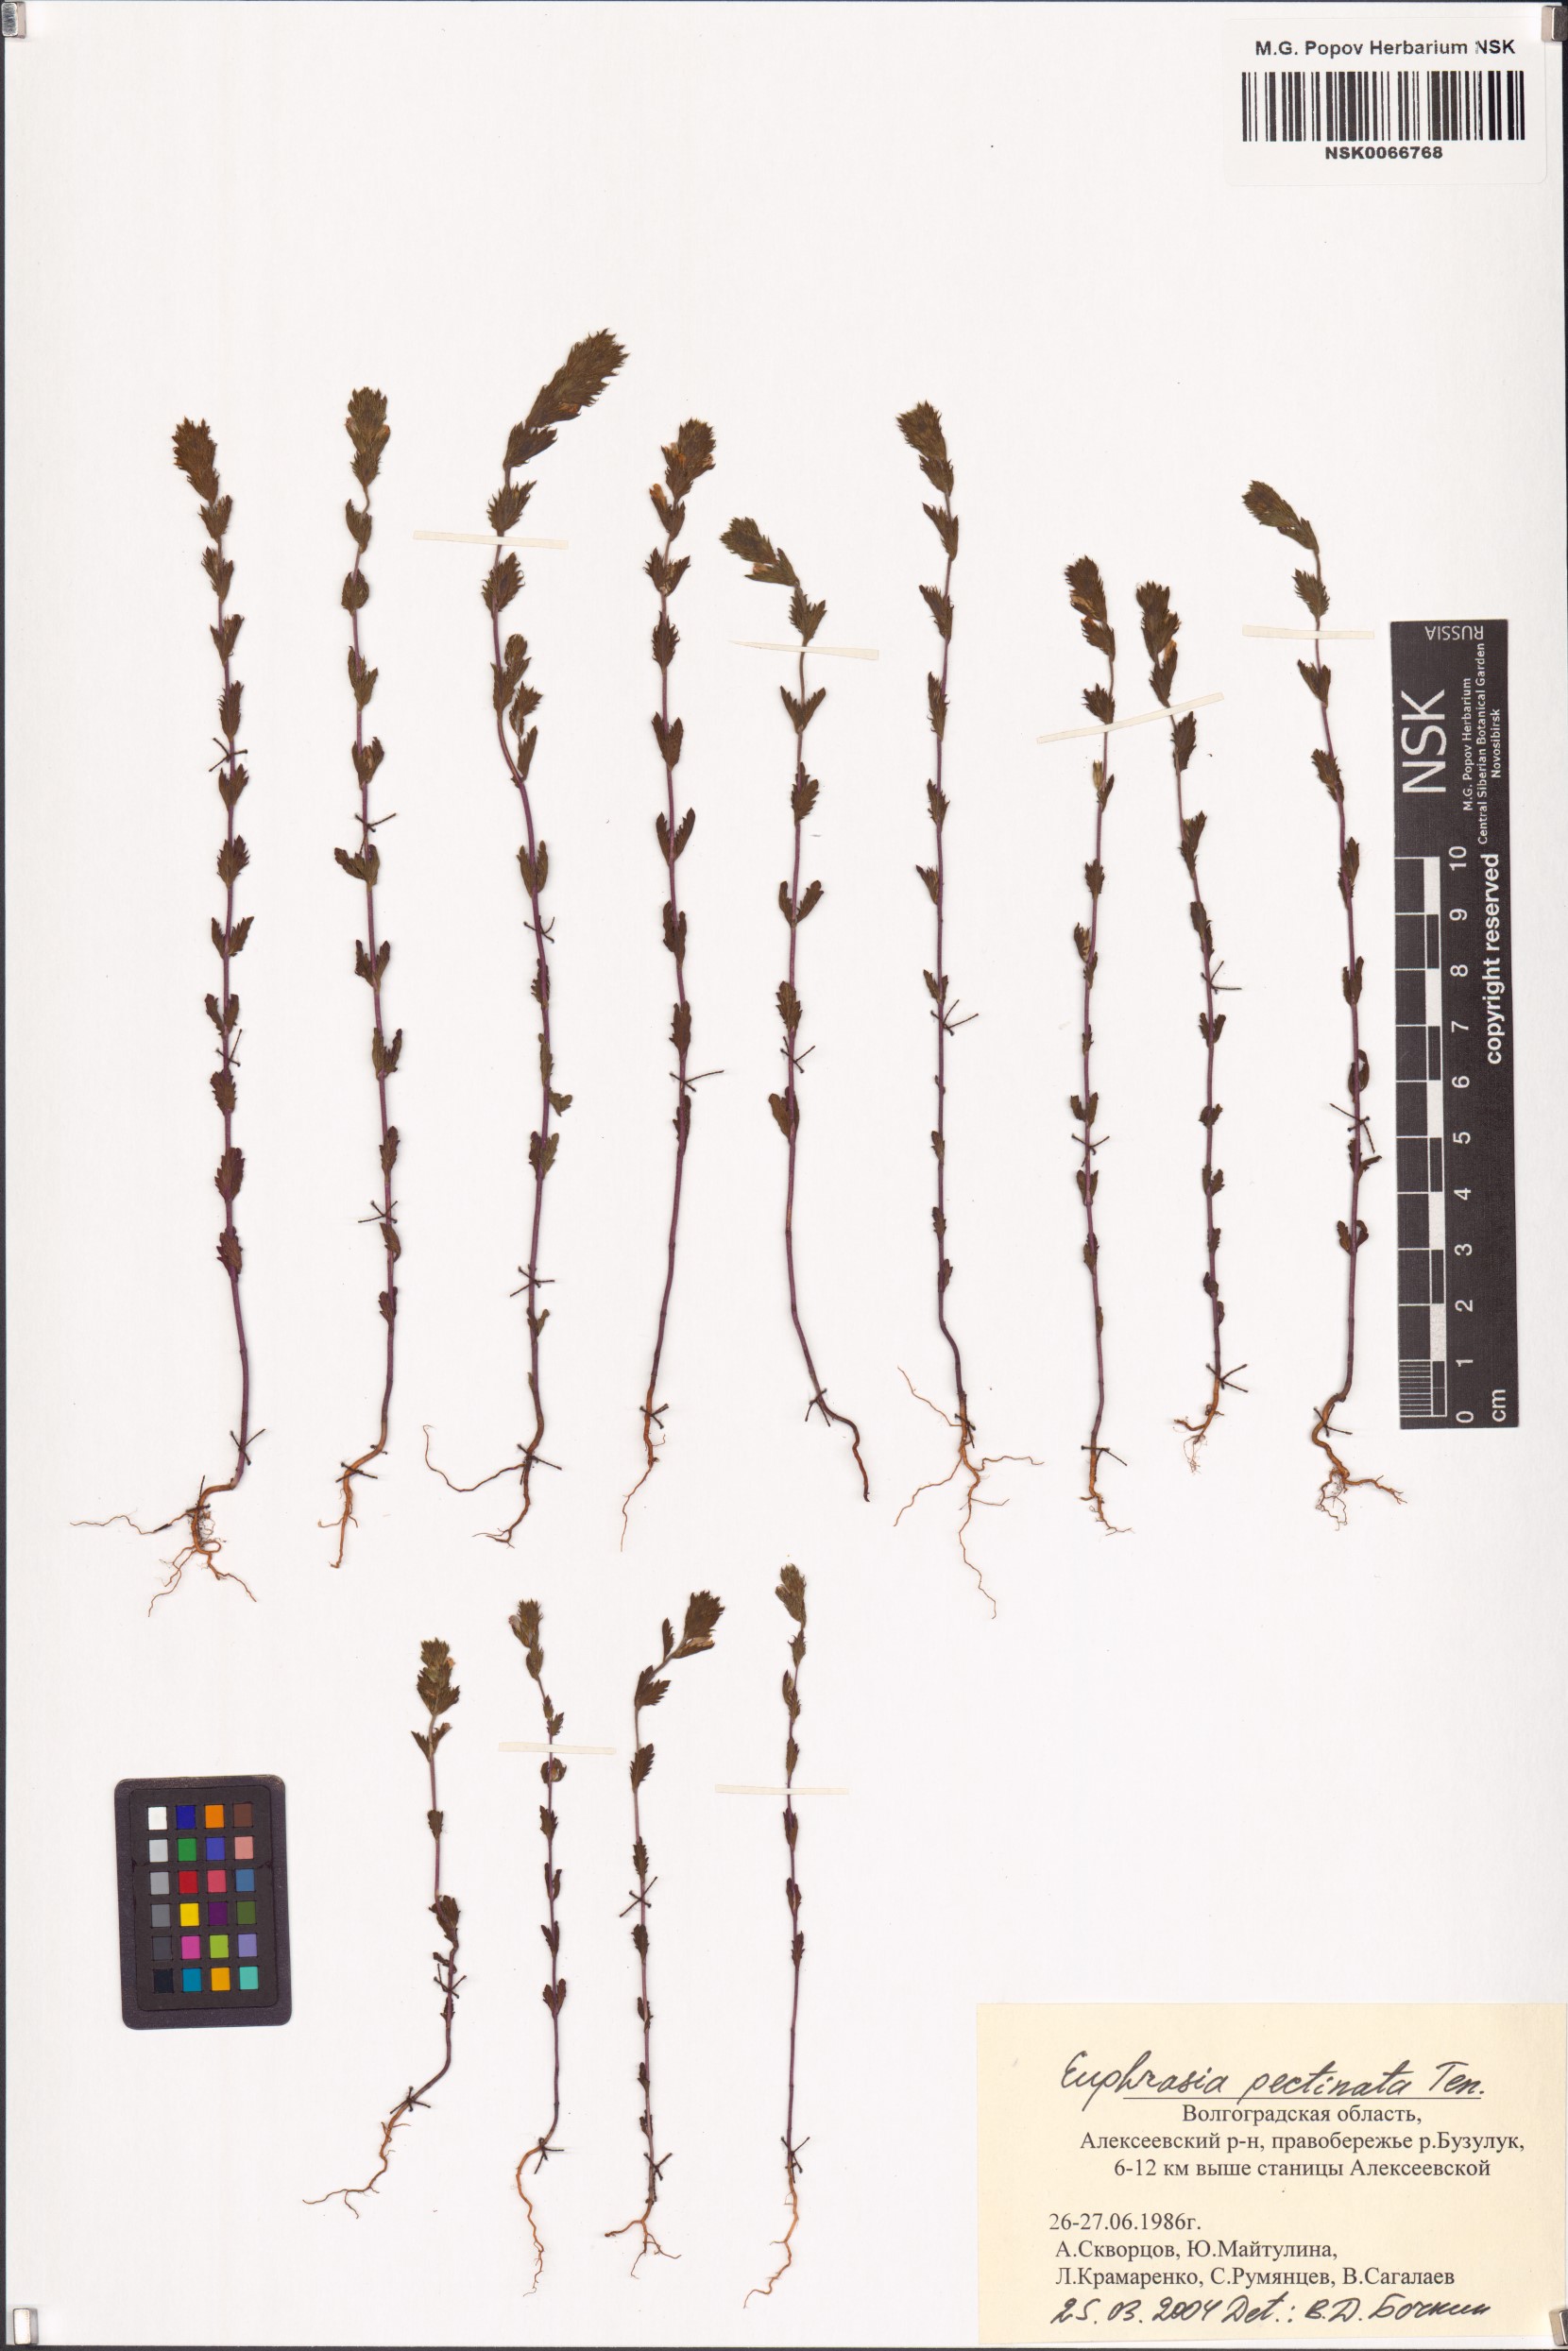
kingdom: Plantae
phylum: Tracheophyta
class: Magnoliopsida
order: Lamiales
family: Orobanchaceae
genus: Euphrasia
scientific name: Euphrasia pectinata
